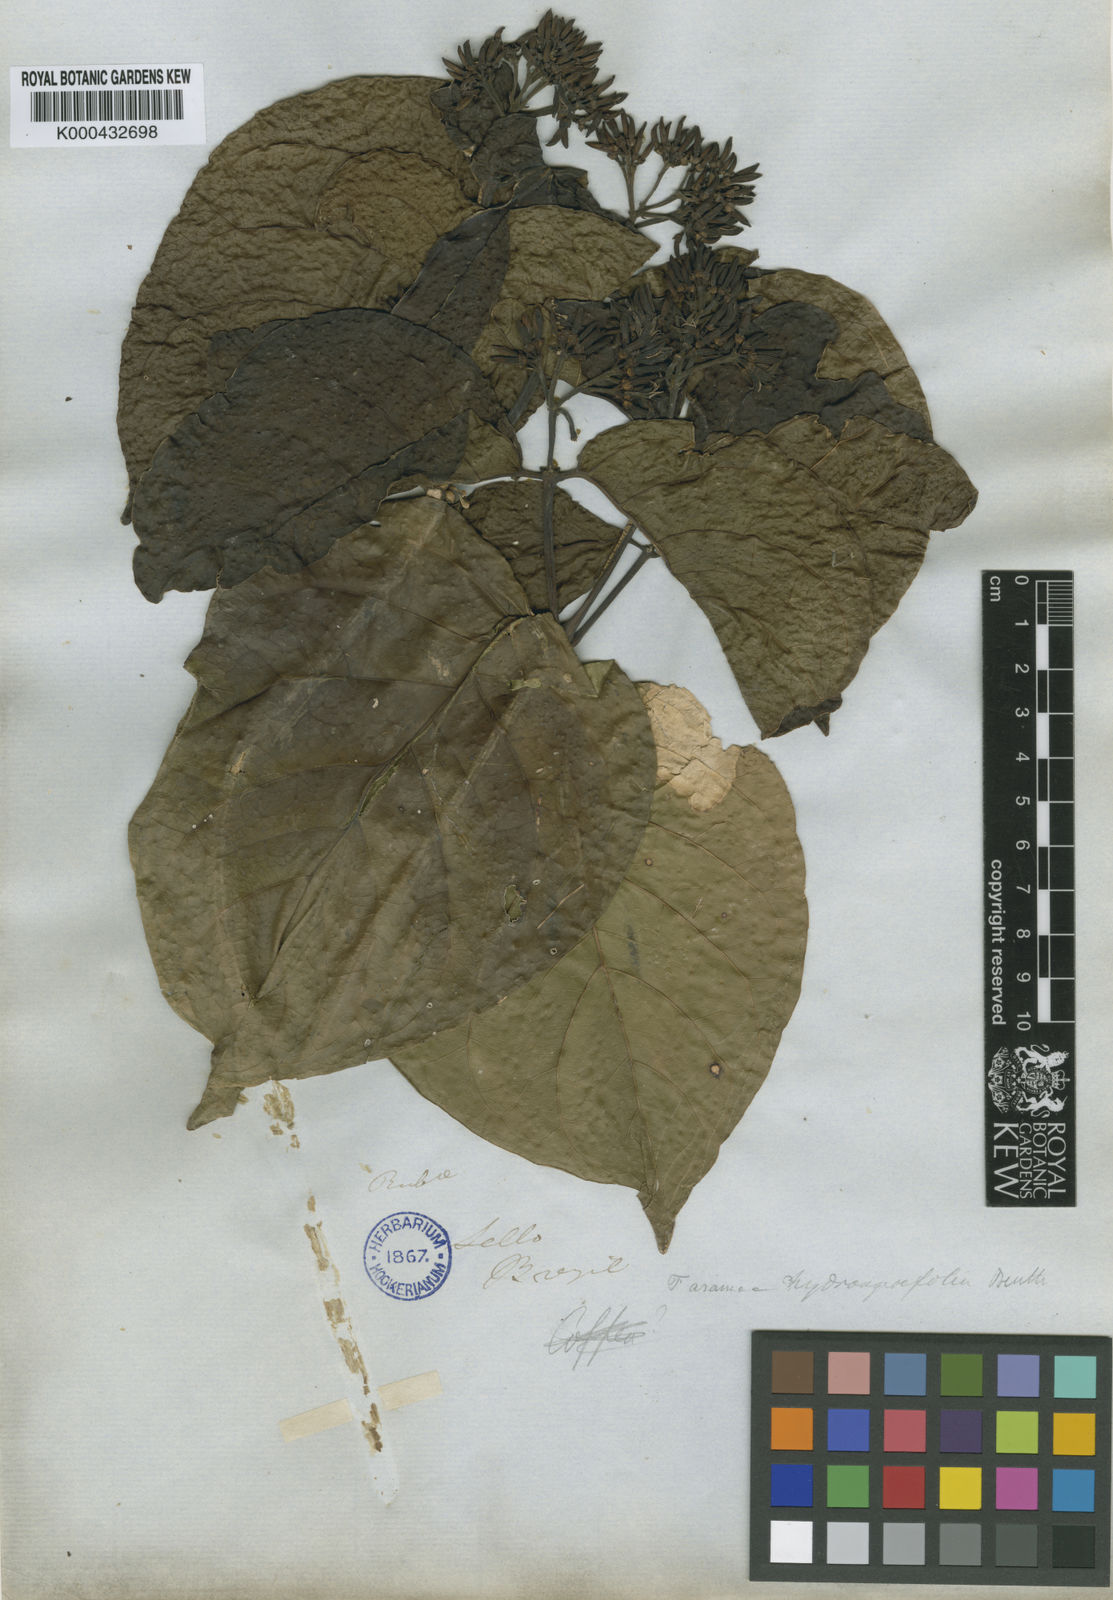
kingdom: Plantae
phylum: Tracheophyta
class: Magnoliopsida
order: Gentianales
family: Rubiaceae
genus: Coussarea
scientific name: Coussarea
